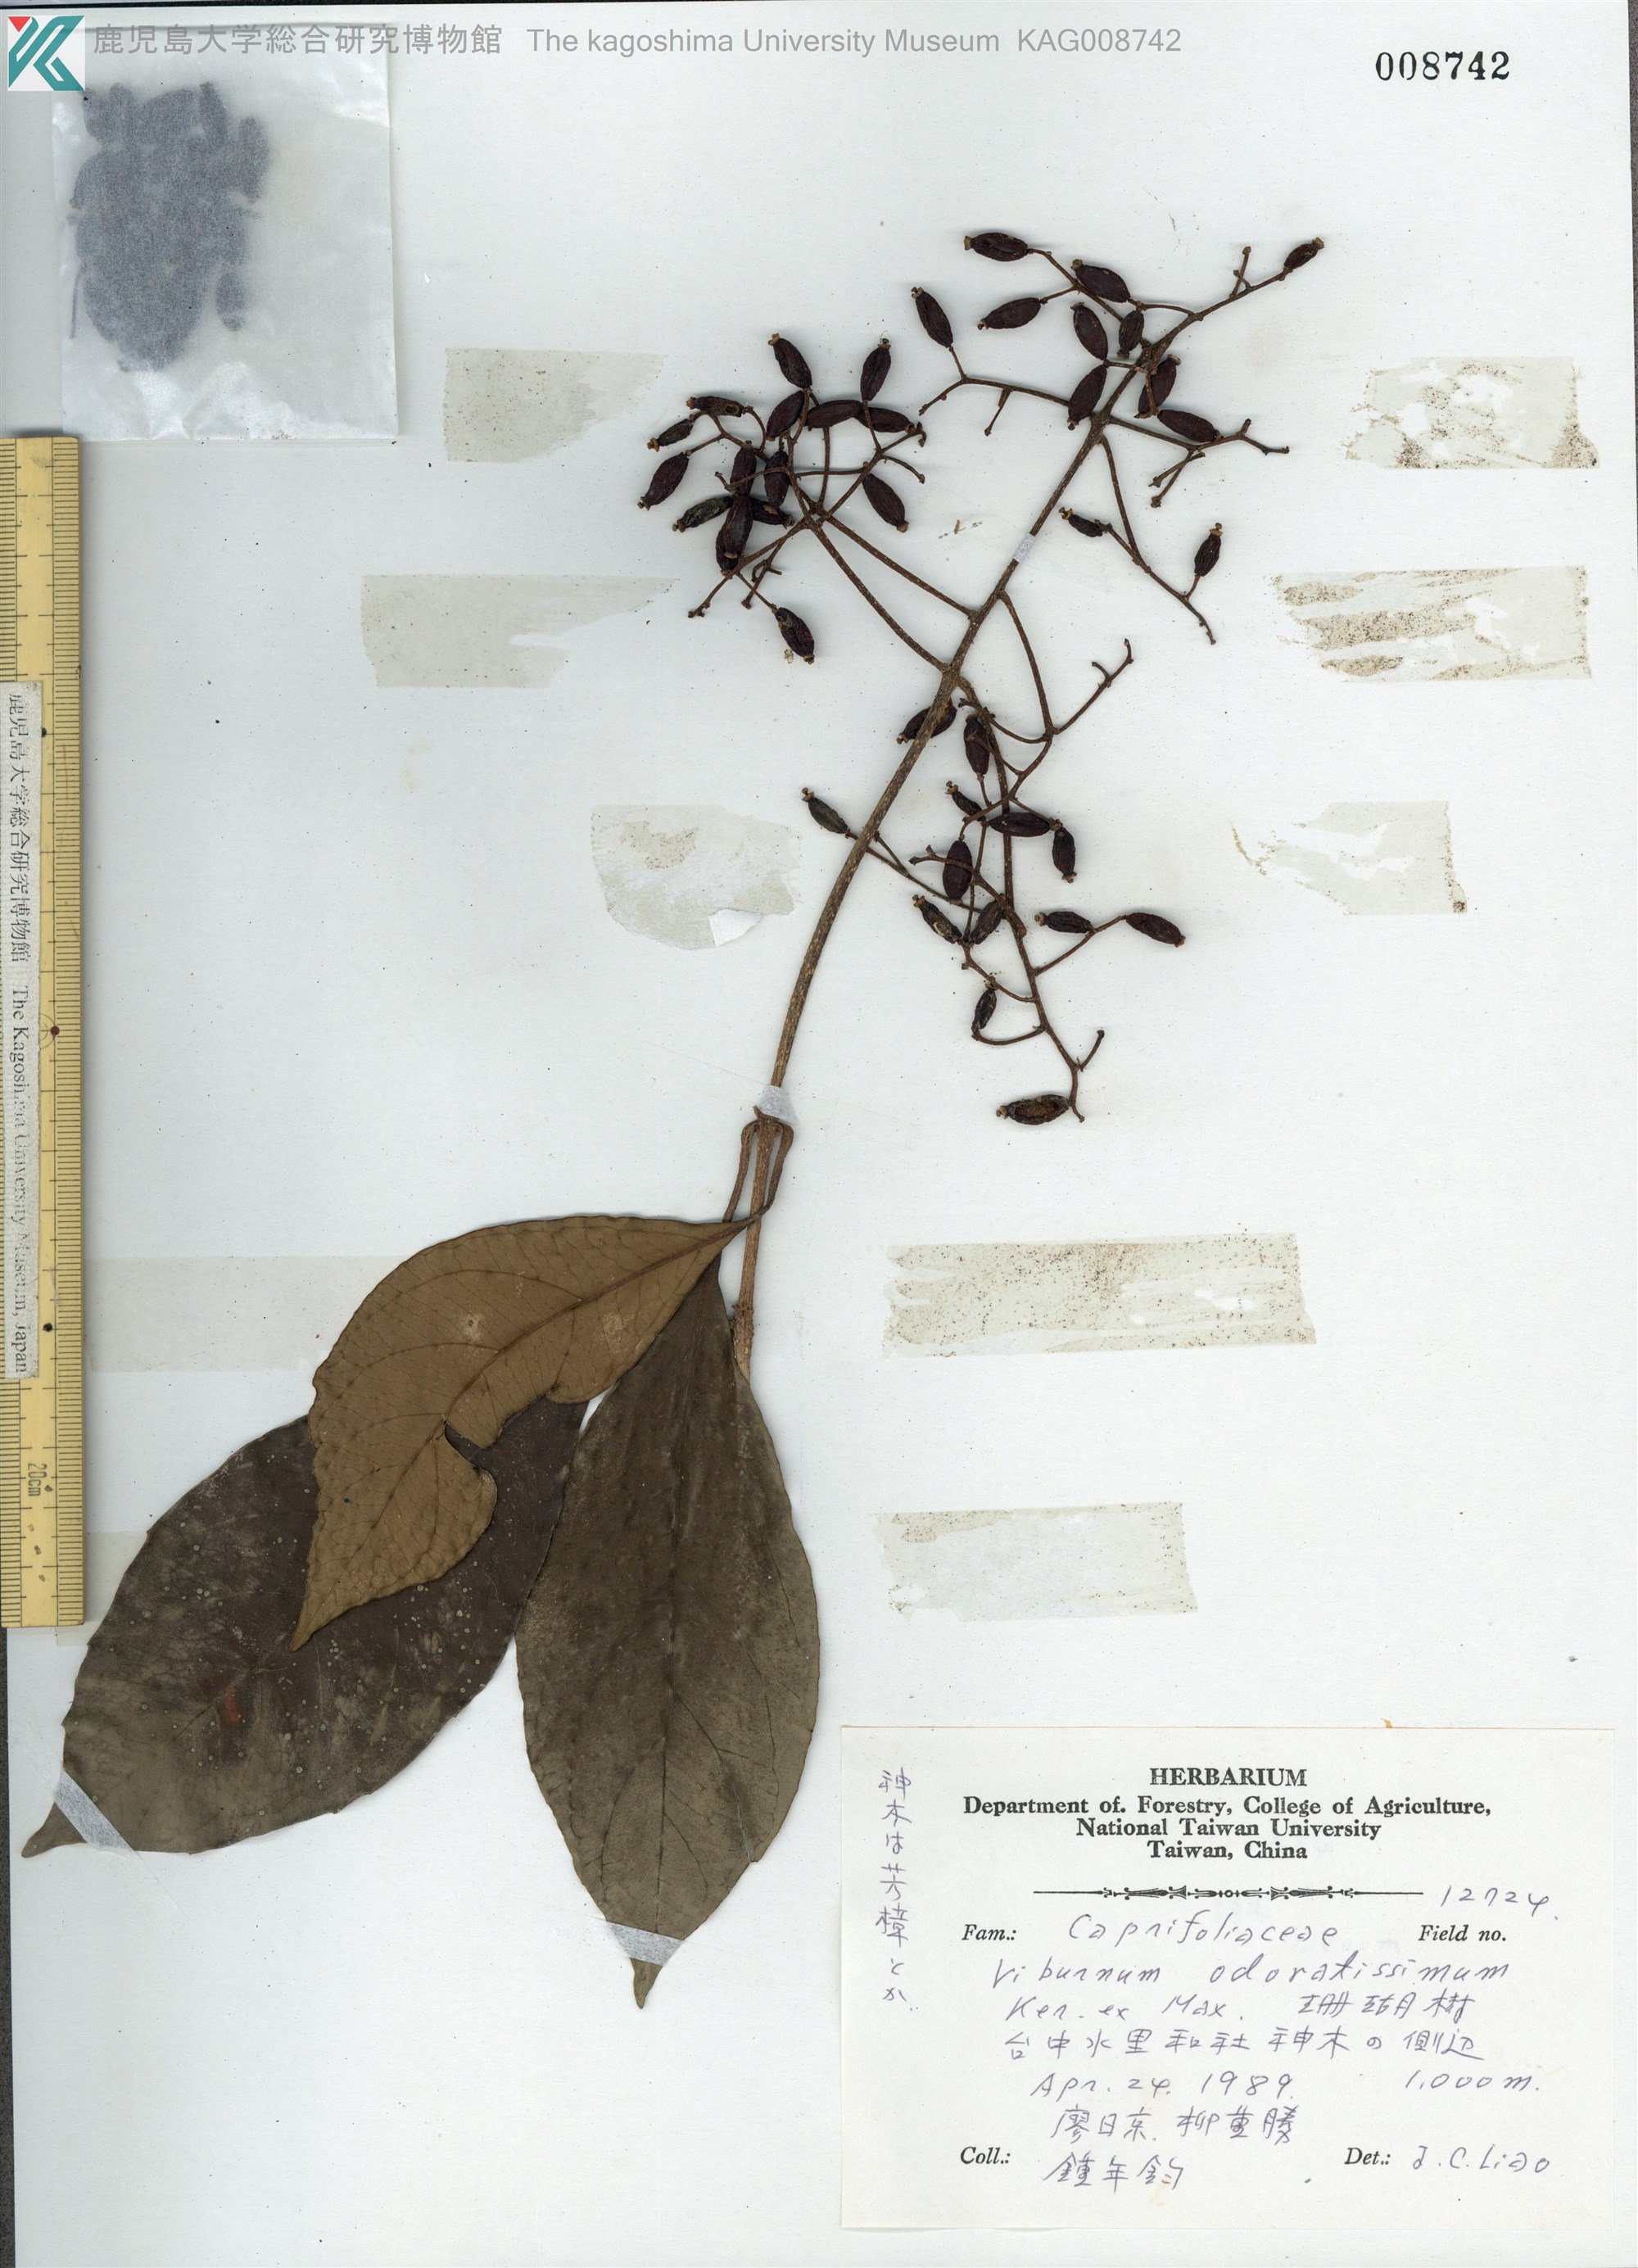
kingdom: Plantae
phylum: Tracheophyta
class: Magnoliopsida
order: Dipsacales
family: Viburnaceae
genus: Viburnum
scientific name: Viburnum odoratissimum
